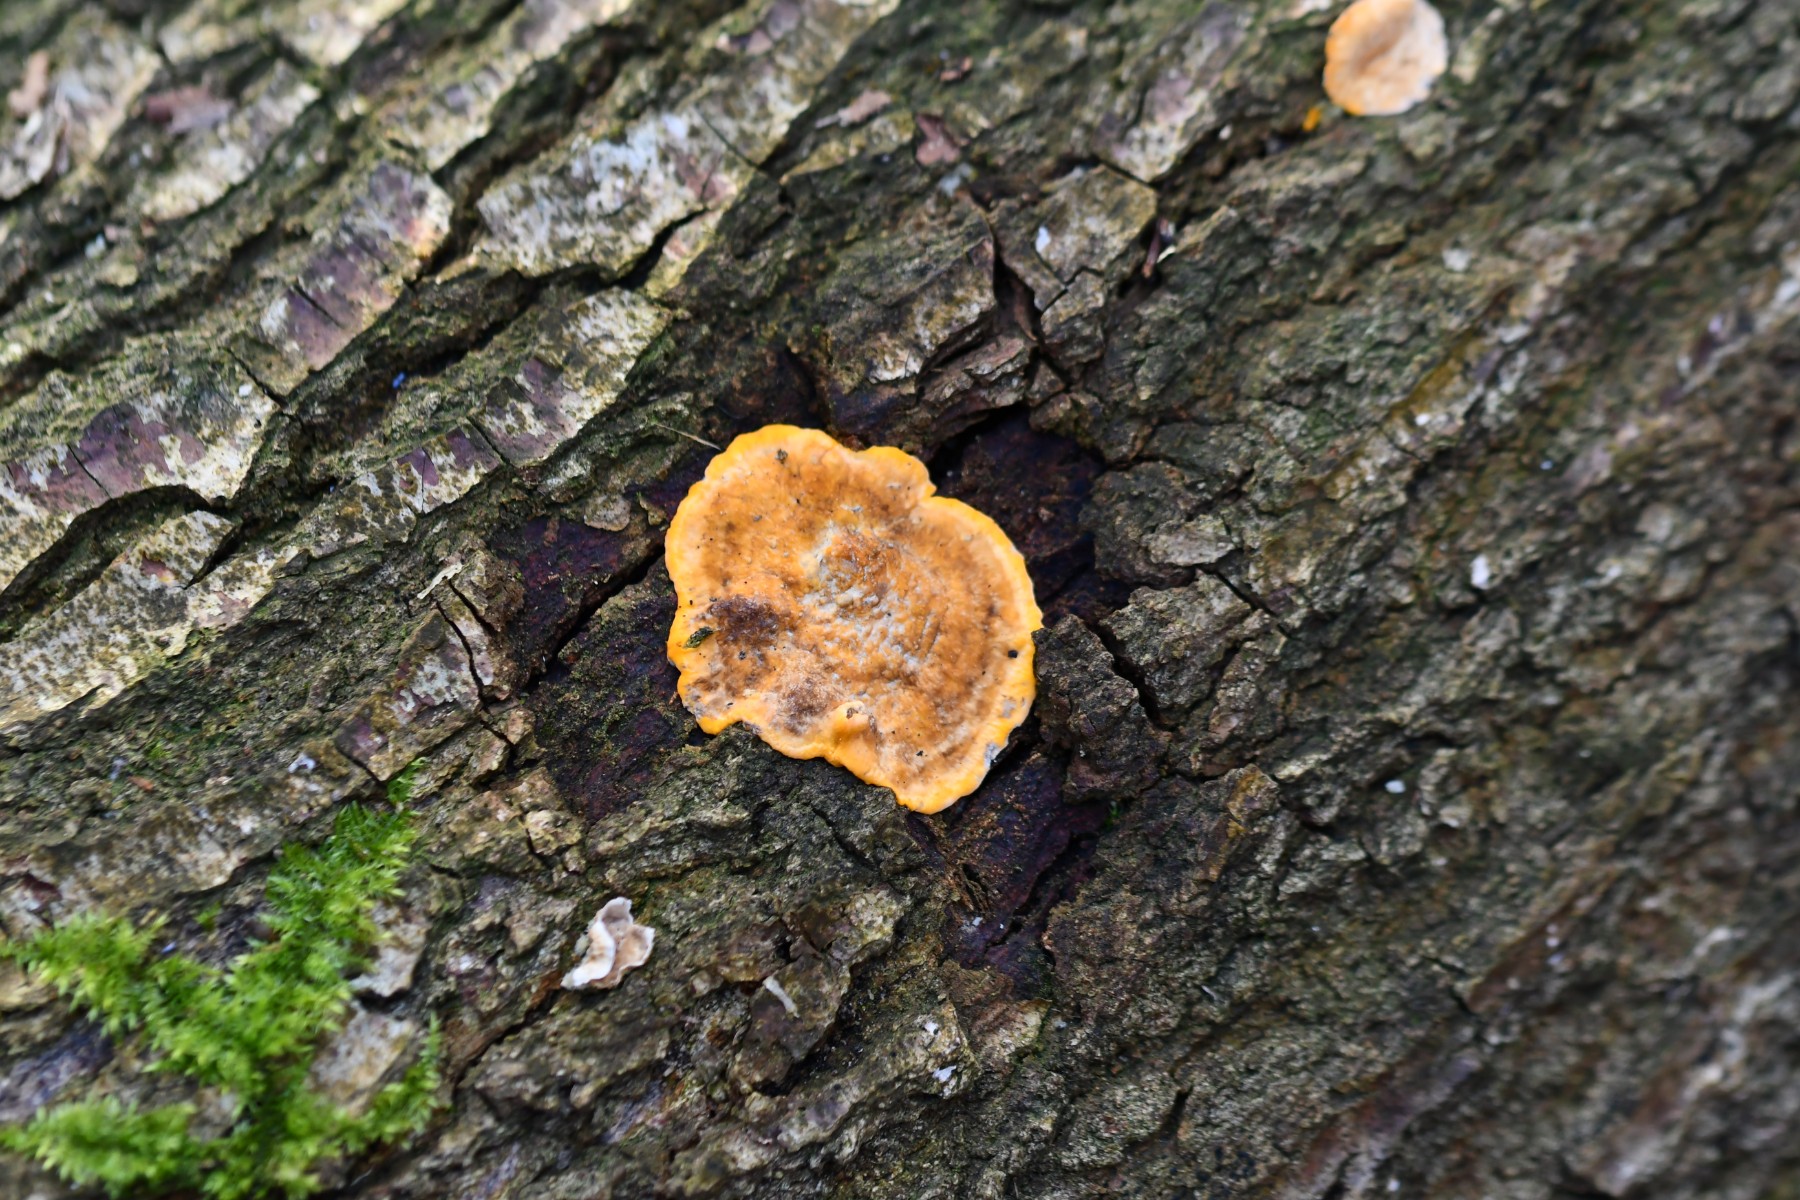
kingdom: Fungi
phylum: Basidiomycota
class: Agaricomycetes
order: Russulales
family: Stereaceae
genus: Stereum
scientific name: Stereum hirsutum
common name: håret lædersvamp
